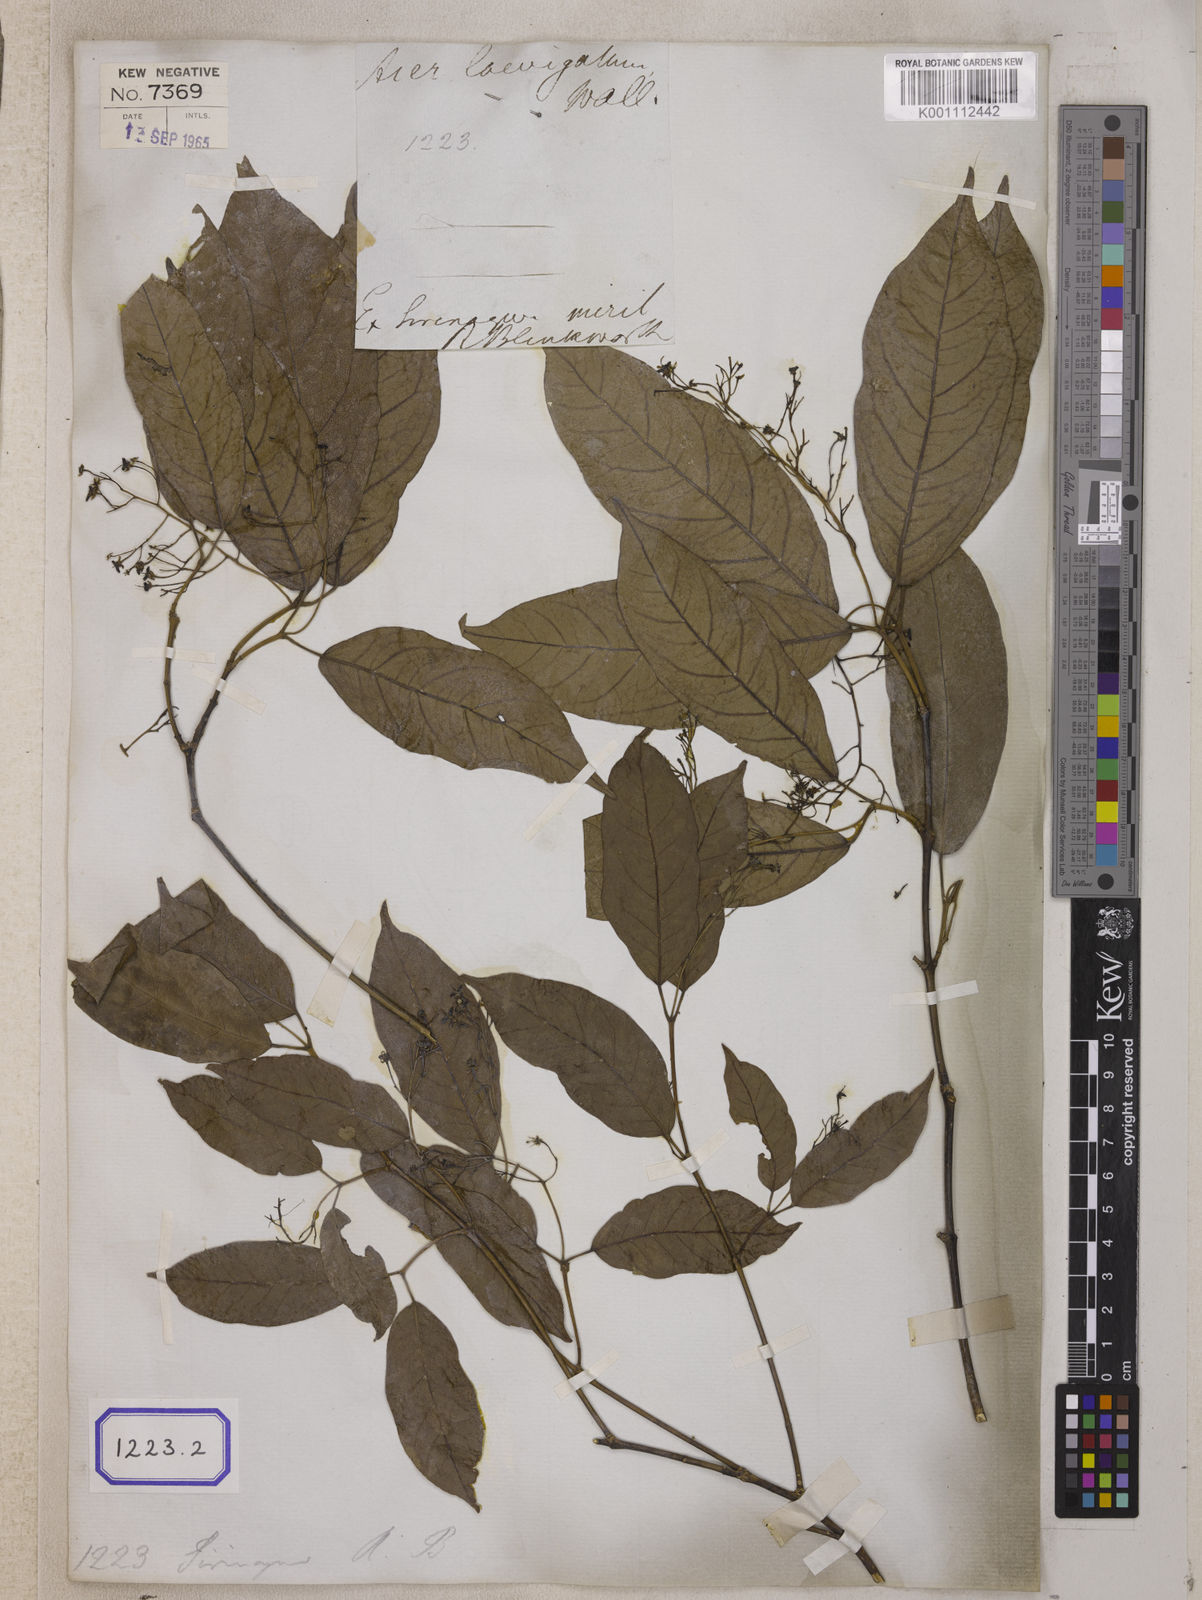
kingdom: Plantae
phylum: Tracheophyta
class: Magnoliopsida
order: Sapindales
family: Sapindaceae
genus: Acer
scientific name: Acer laevigatum
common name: Nepal maple
